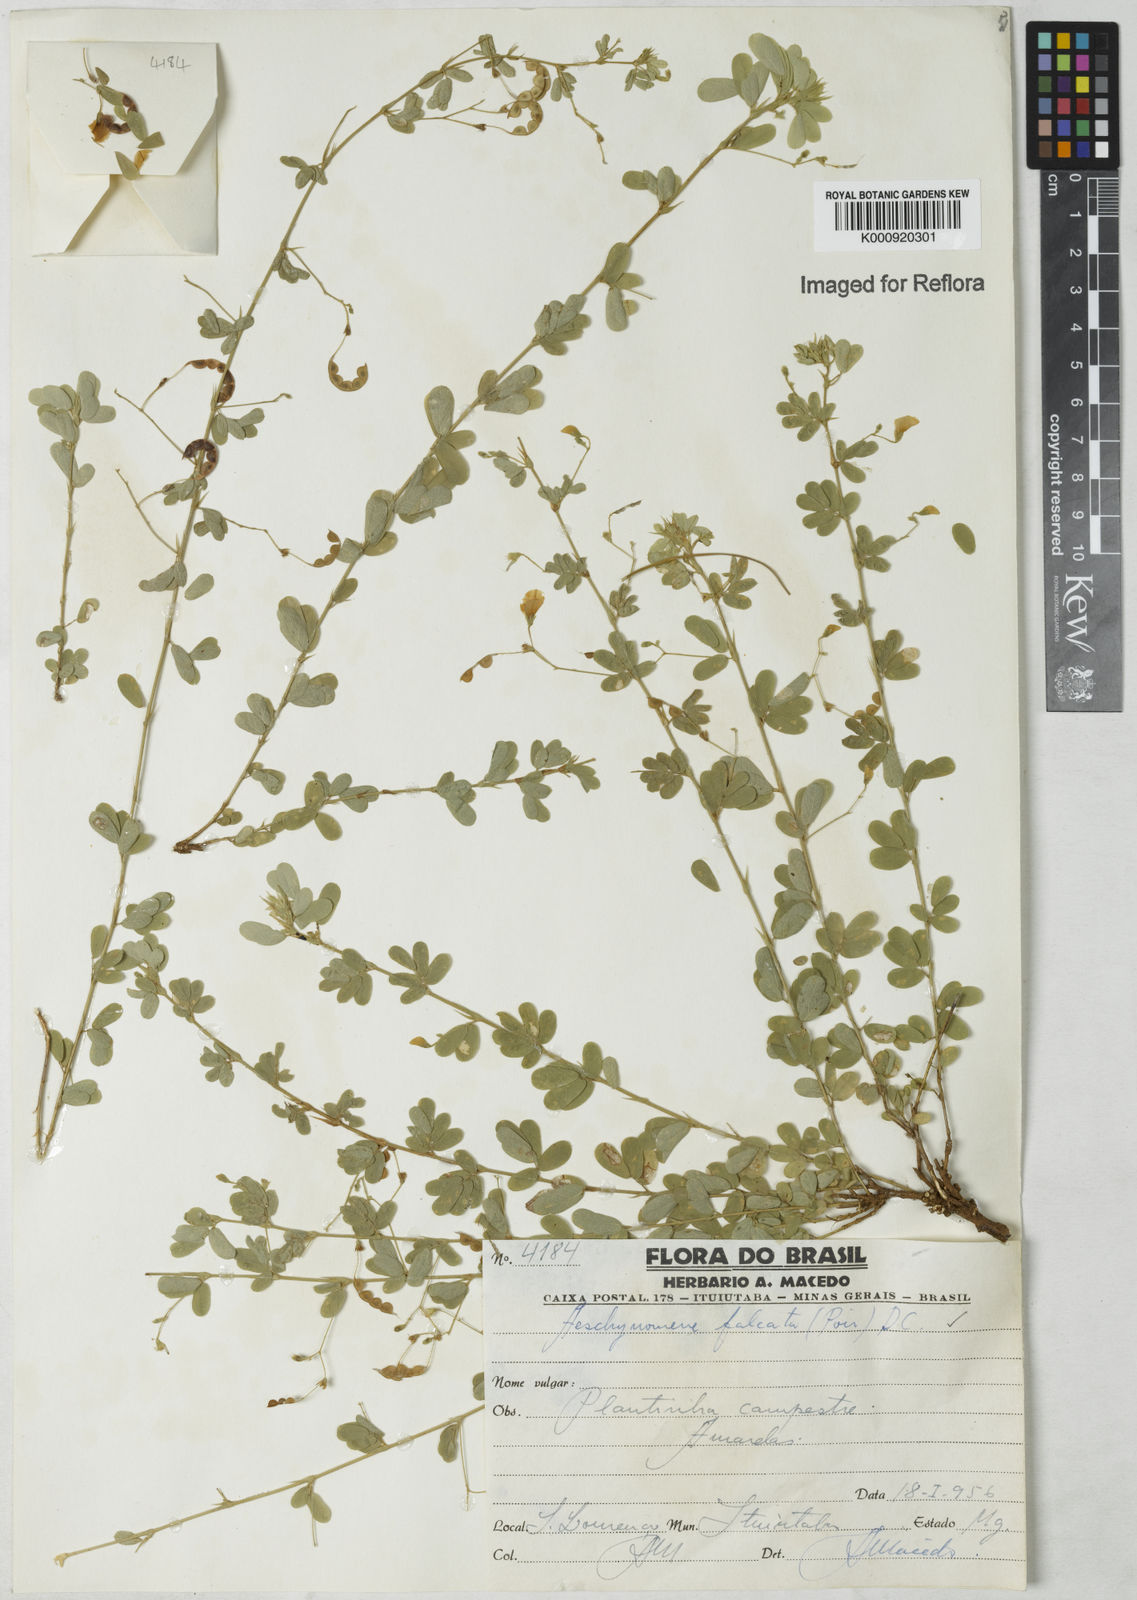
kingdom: Plantae
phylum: Tracheophyta
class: Magnoliopsida
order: Fabales
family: Fabaceae
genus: Aeschynomene
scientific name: Aeschynomene
